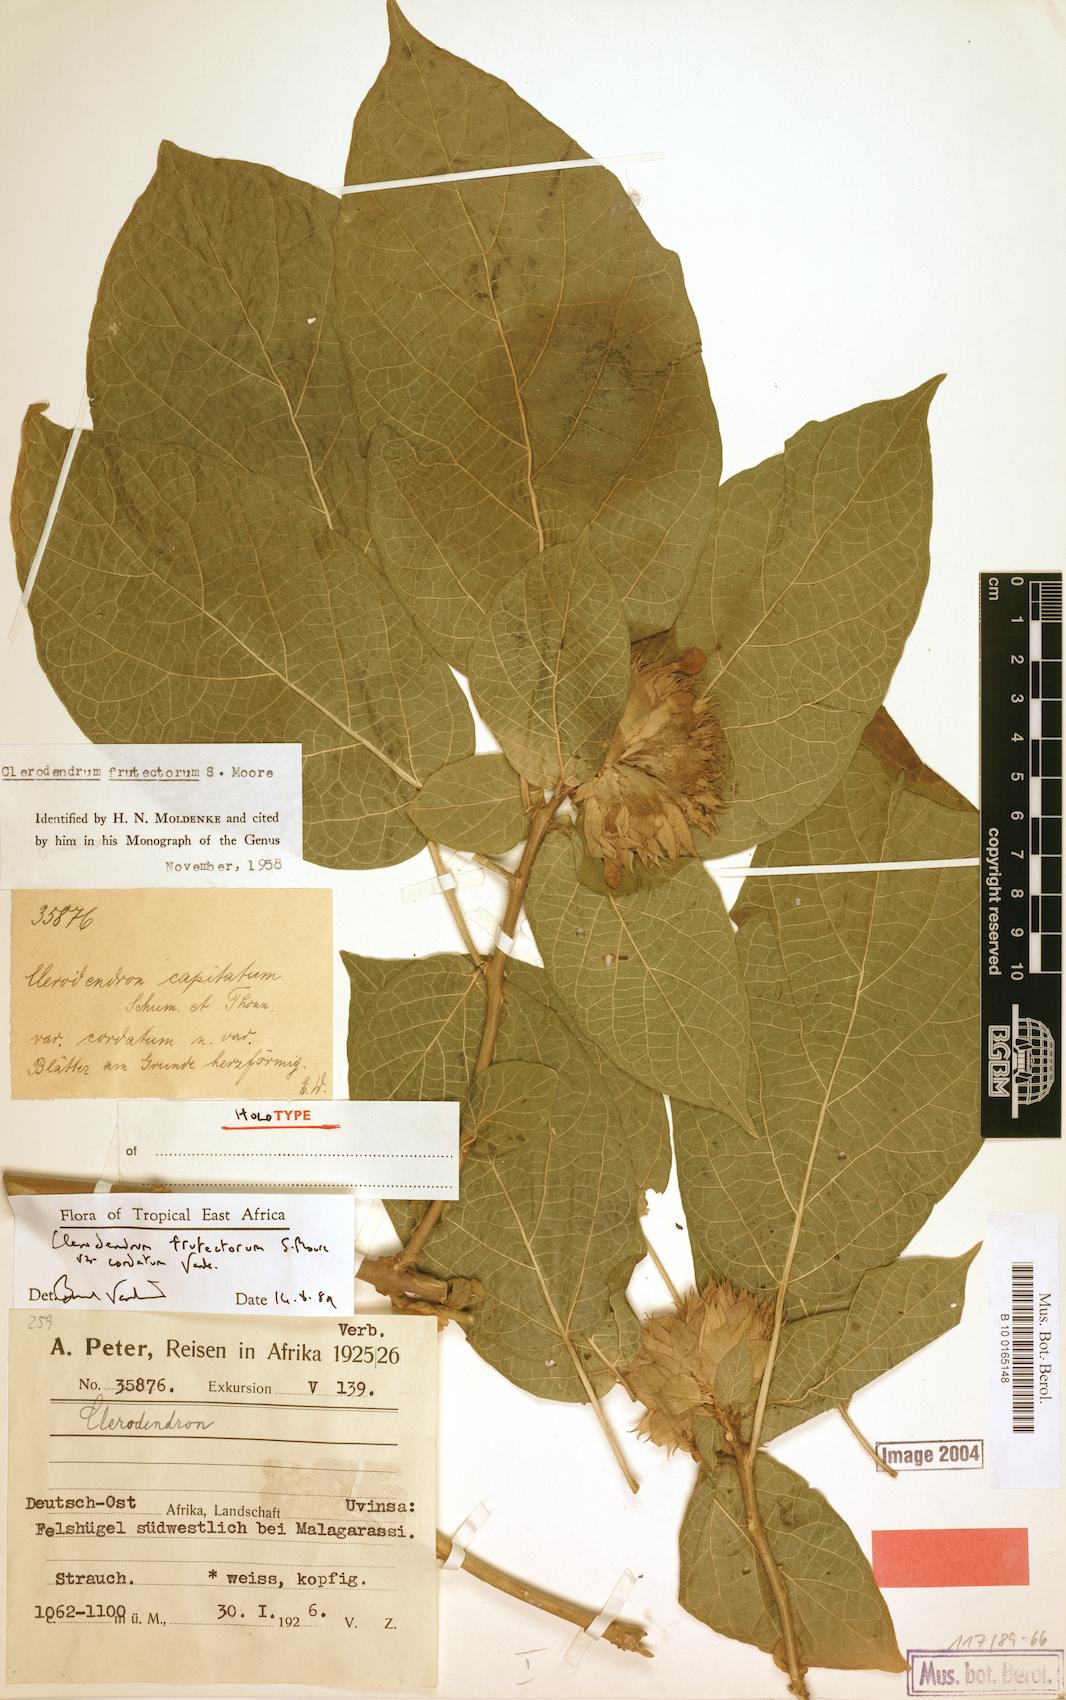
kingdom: Plantae
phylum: Tracheophyta
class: Magnoliopsida
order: Lamiales
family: Lamiaceae
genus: Clerodendrum
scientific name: Clerodendrum frutectorum
